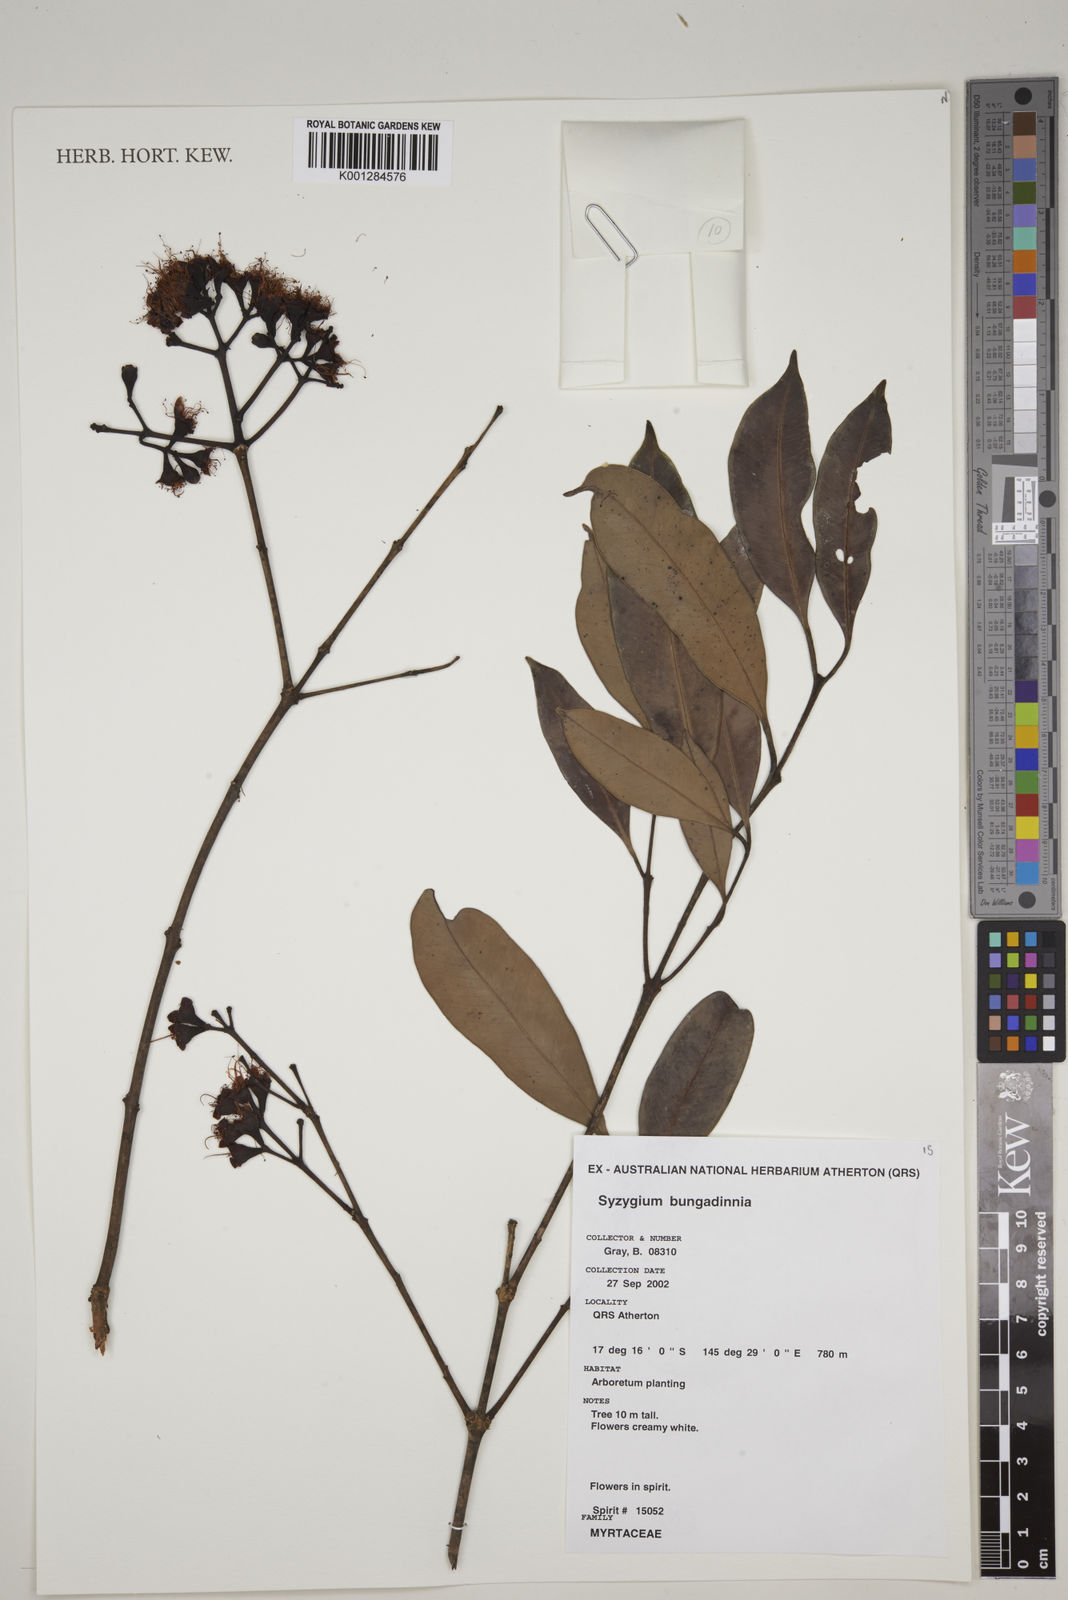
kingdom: Plantae
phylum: Tracheophyta
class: Magnoliopsida
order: Myrtales
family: Myrtaceae
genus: Syzygium
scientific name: Syzygium bungadinnia
